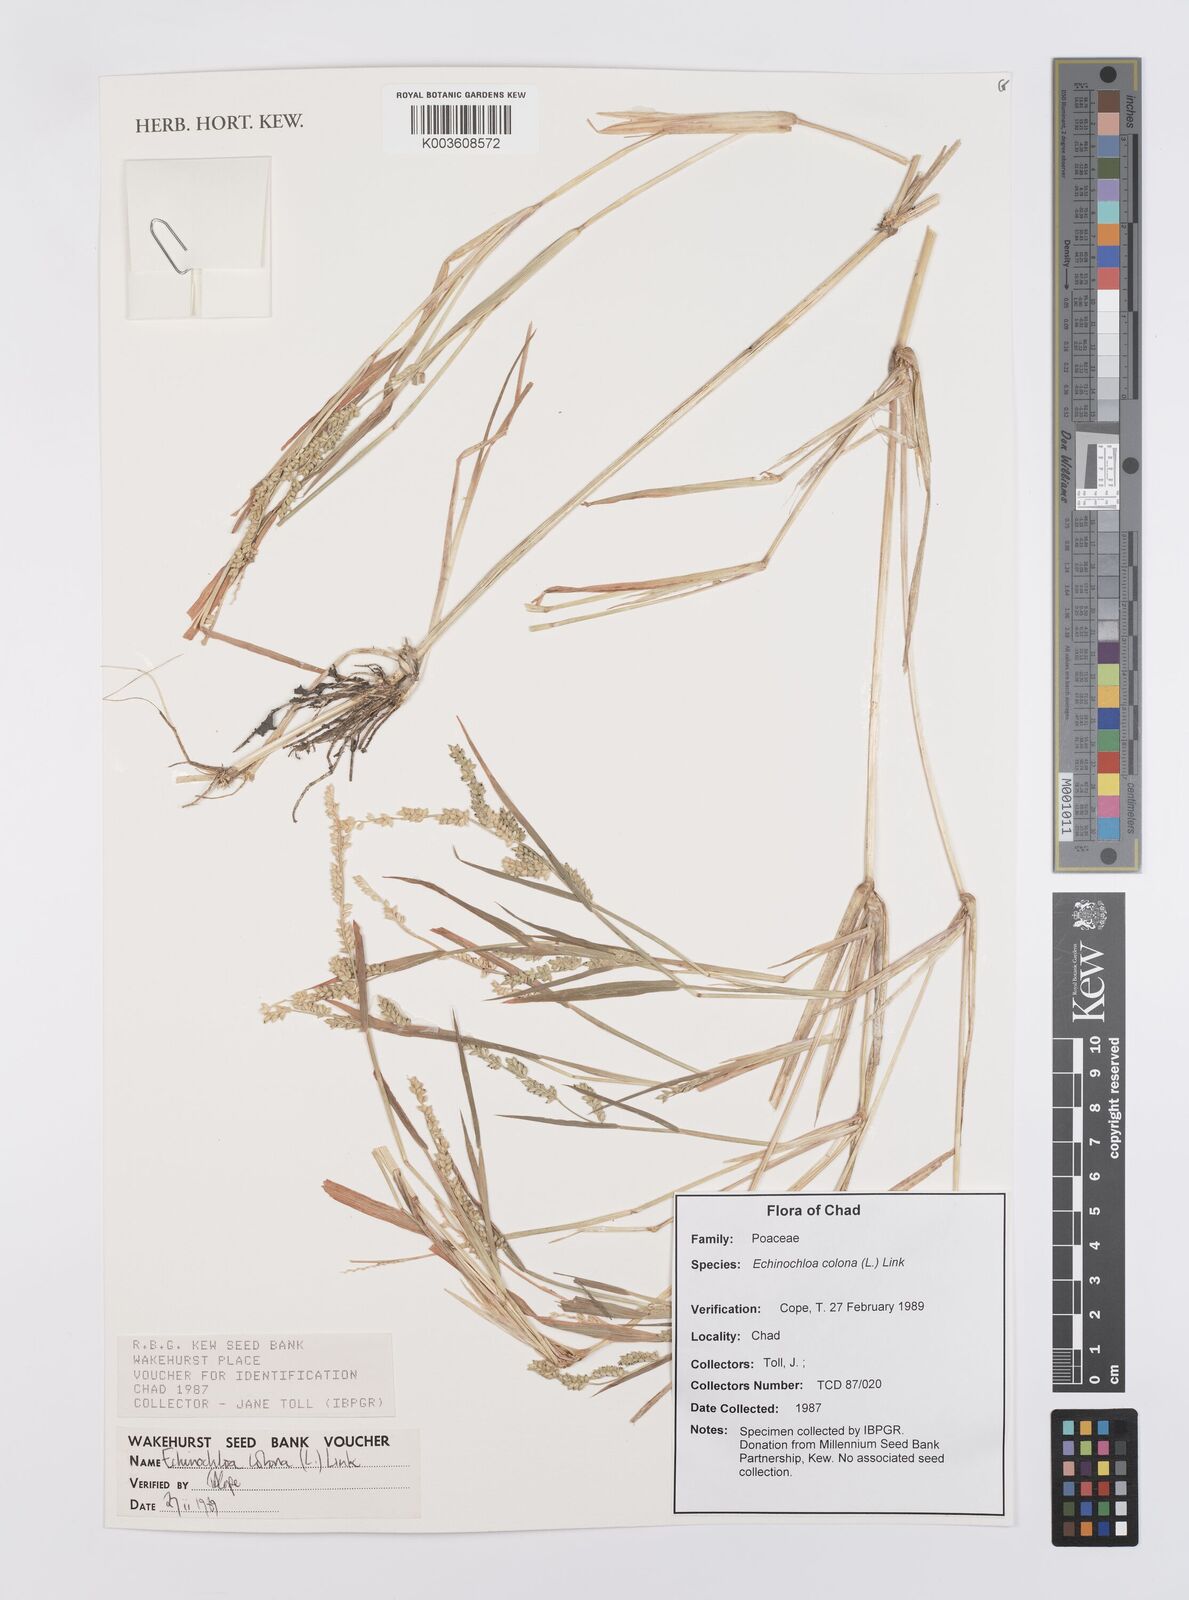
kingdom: Plantae
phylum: Tracheophyta
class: Liliopsida
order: Poales
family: Poaceae
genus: Echinochloa
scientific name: Echinochloa colonum
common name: Jungle rice
